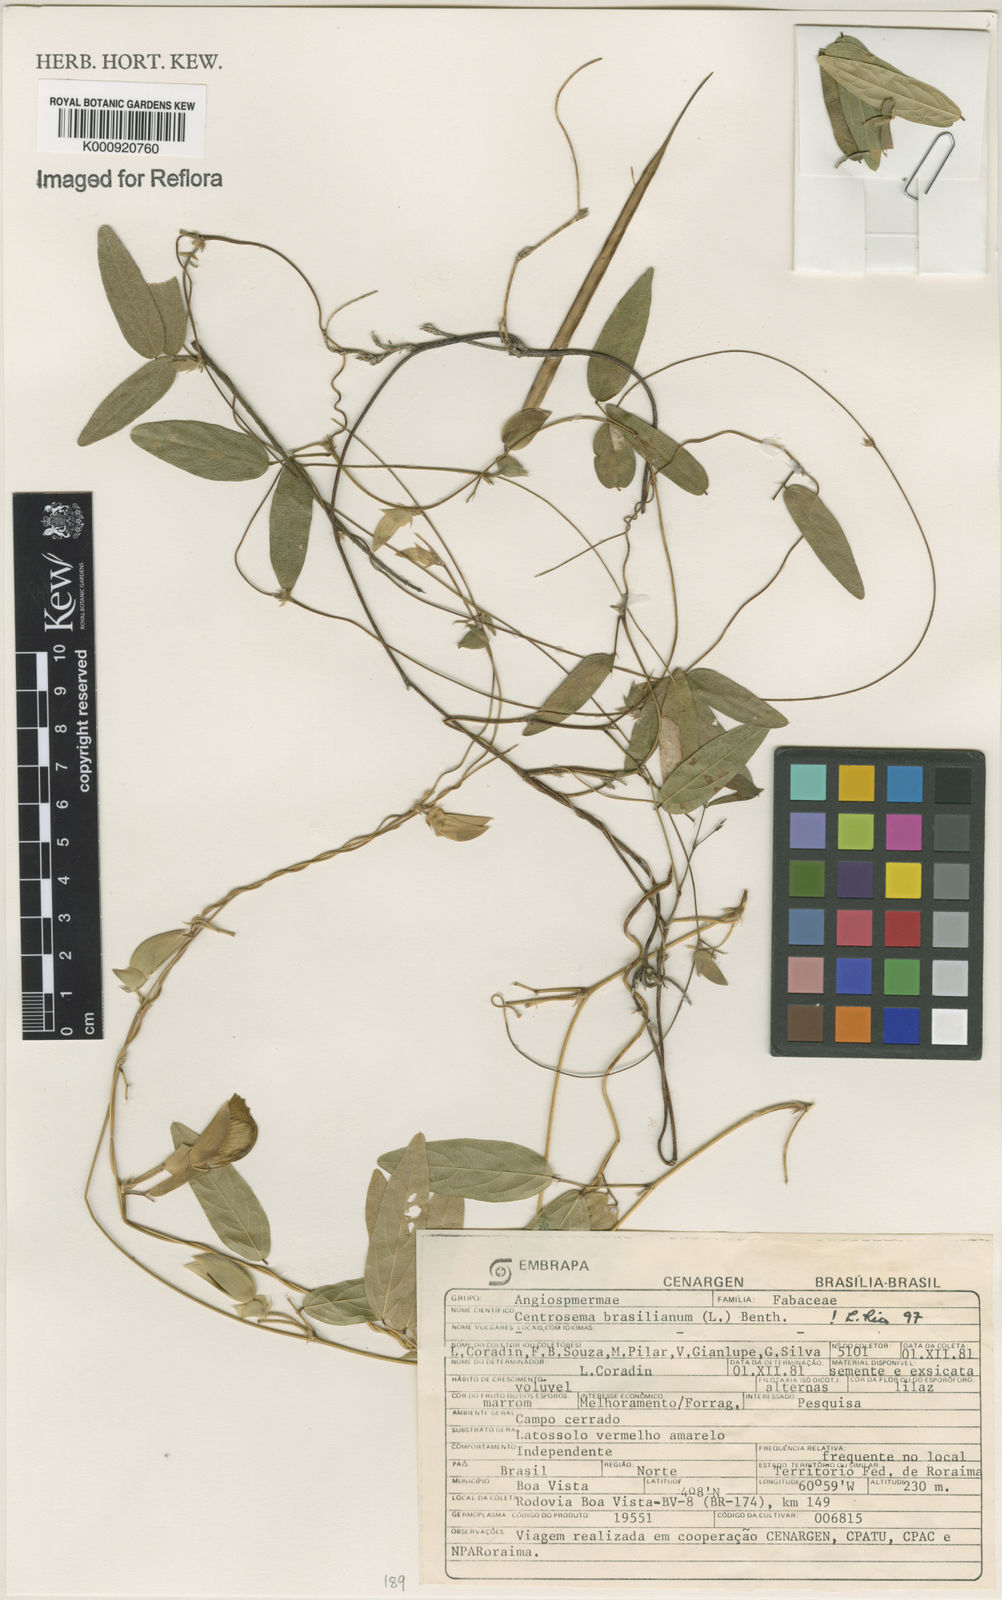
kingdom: Plantae
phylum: Tracheophyta
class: Magnoliopsida
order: Fabales
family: Fabaceae
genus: Centrosema
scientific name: Centrosema brasilianum
